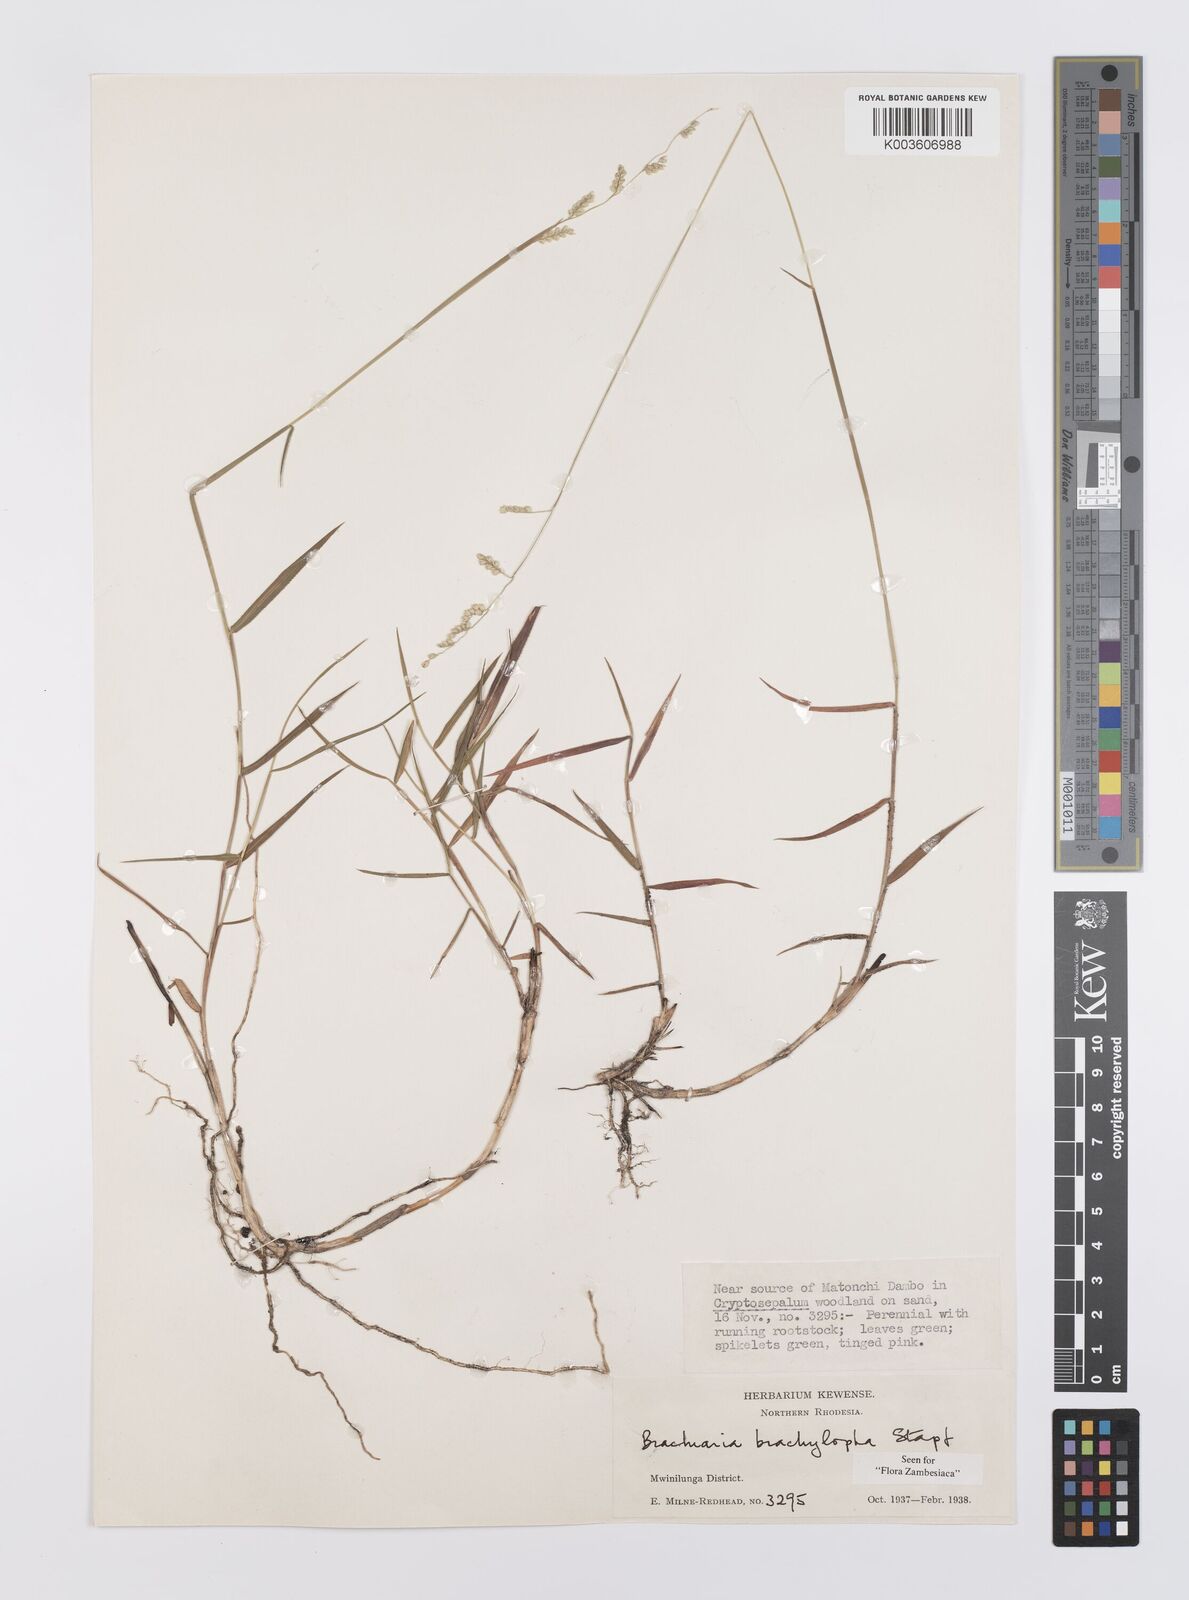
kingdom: Plantae
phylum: Tracheophyta
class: Liliopsida
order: Poales
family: Poaceae
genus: Urochloa
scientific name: Urochloa serrata
